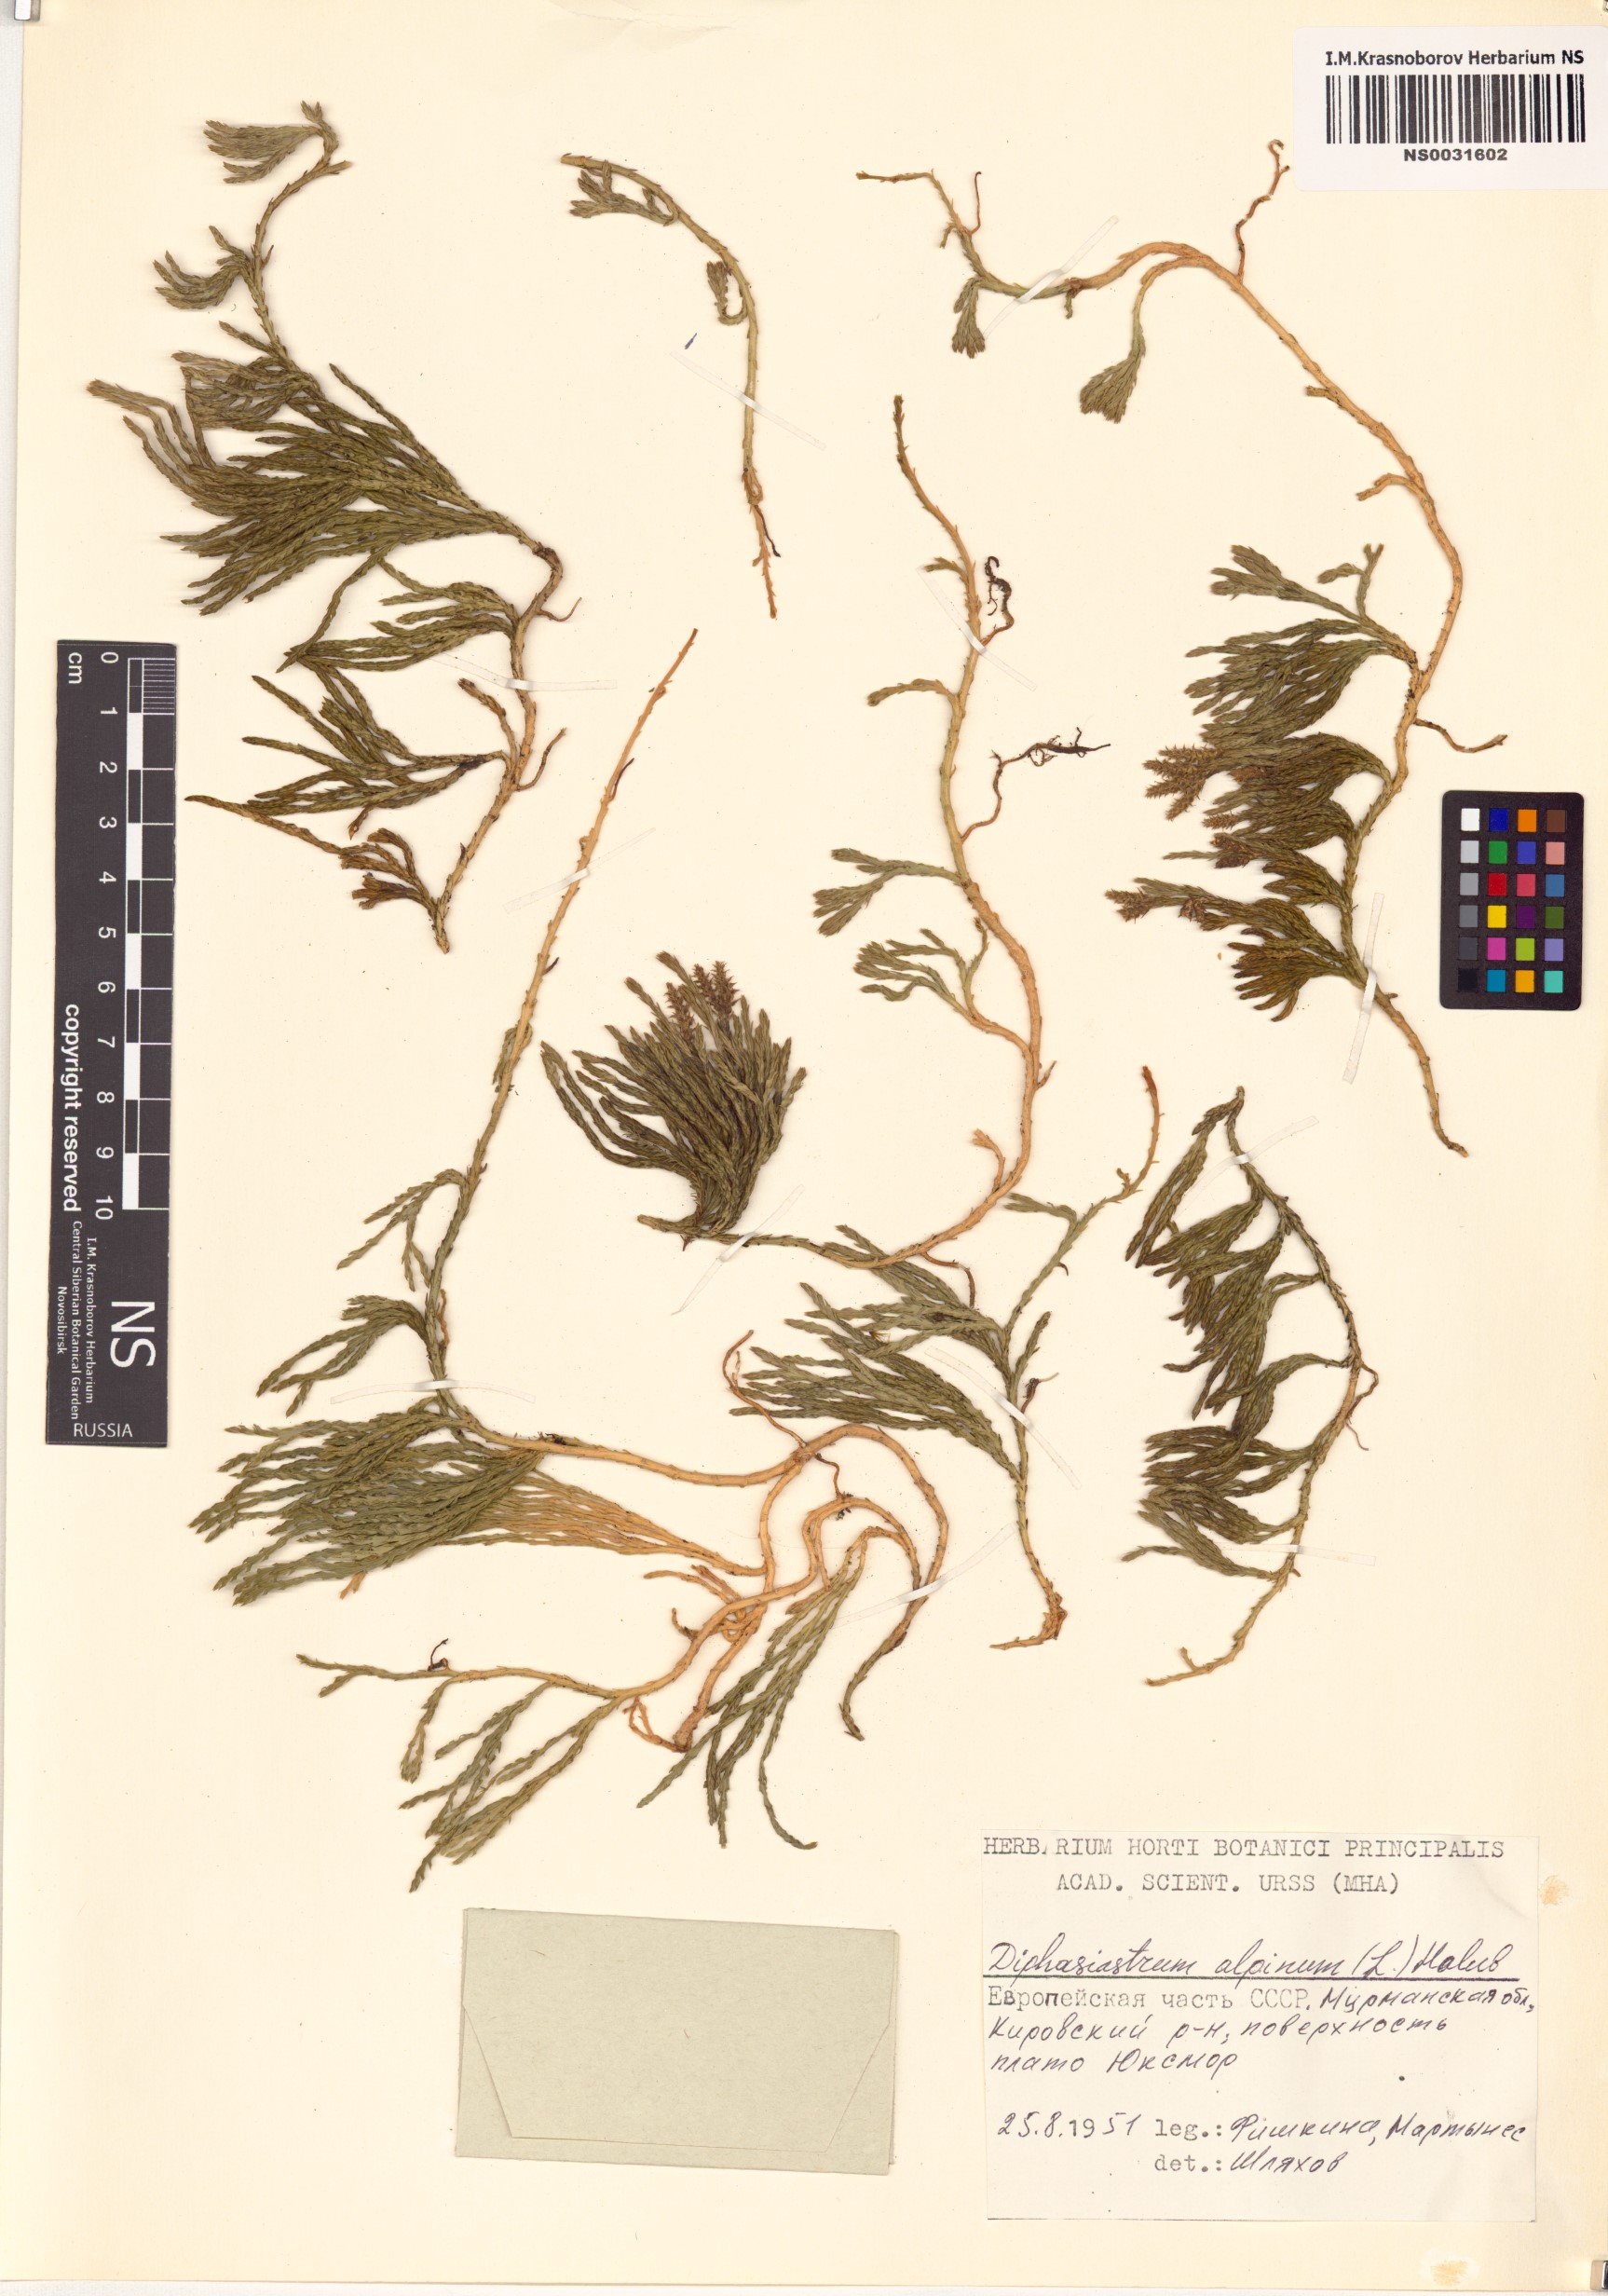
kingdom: Plantae
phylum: Tracheophyta
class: Lycopodiopsida
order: Lycopodiales
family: Lycopodiaceae
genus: Diphasiastrum
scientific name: Diphasiastrum alpinum
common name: Alpine clubmoss
